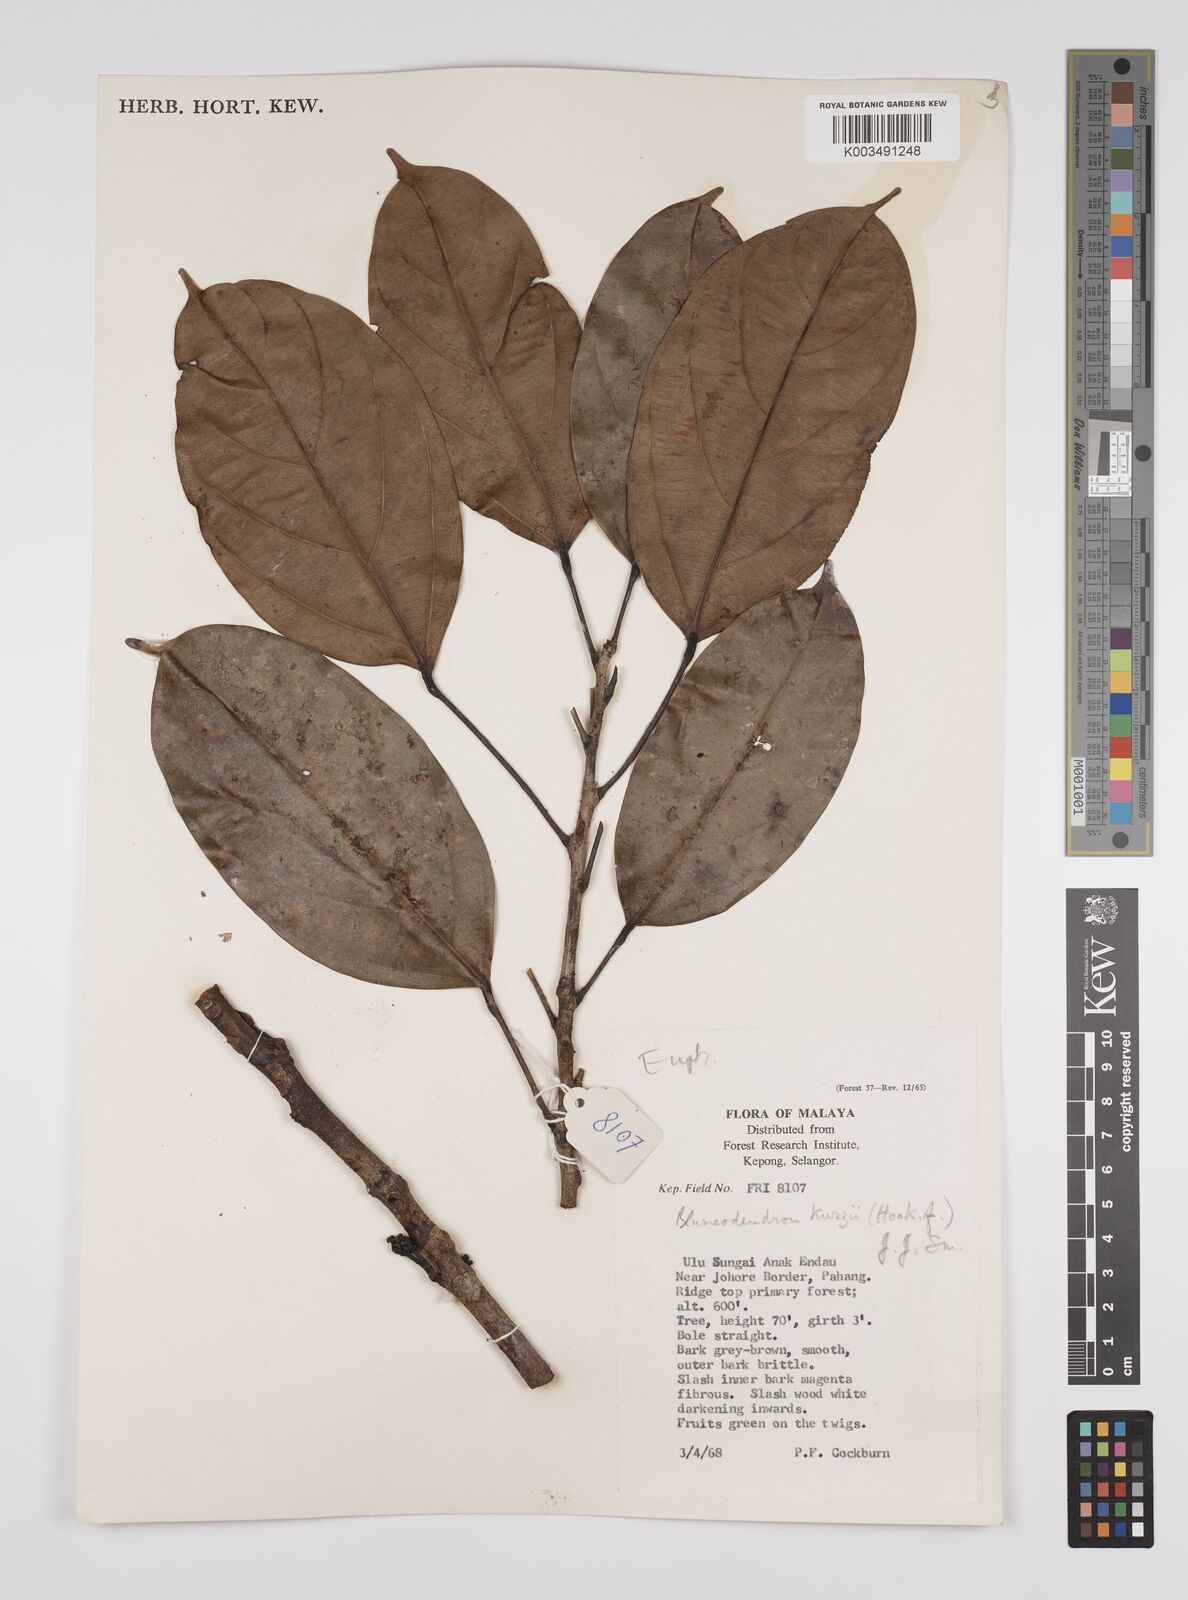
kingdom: Plantae
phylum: Tracheophyta
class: Magnoliopsida
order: Malpighiales
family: Euphorbiaceae
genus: Blumeodendron
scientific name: Blumeodendron kurzii
